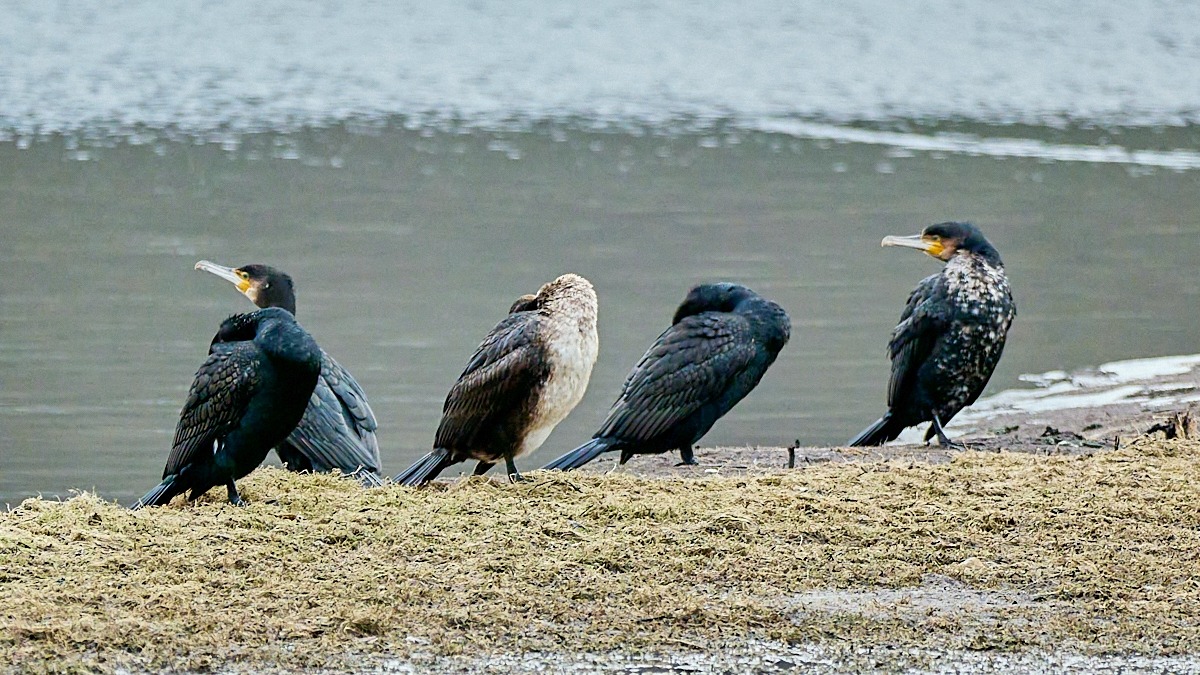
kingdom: Animalia
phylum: Chordata
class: Aves
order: Suliformes
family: Phalacrocoracidae
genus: Phalacrocorax
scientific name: Phalacrocorax carbo
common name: Skarv
